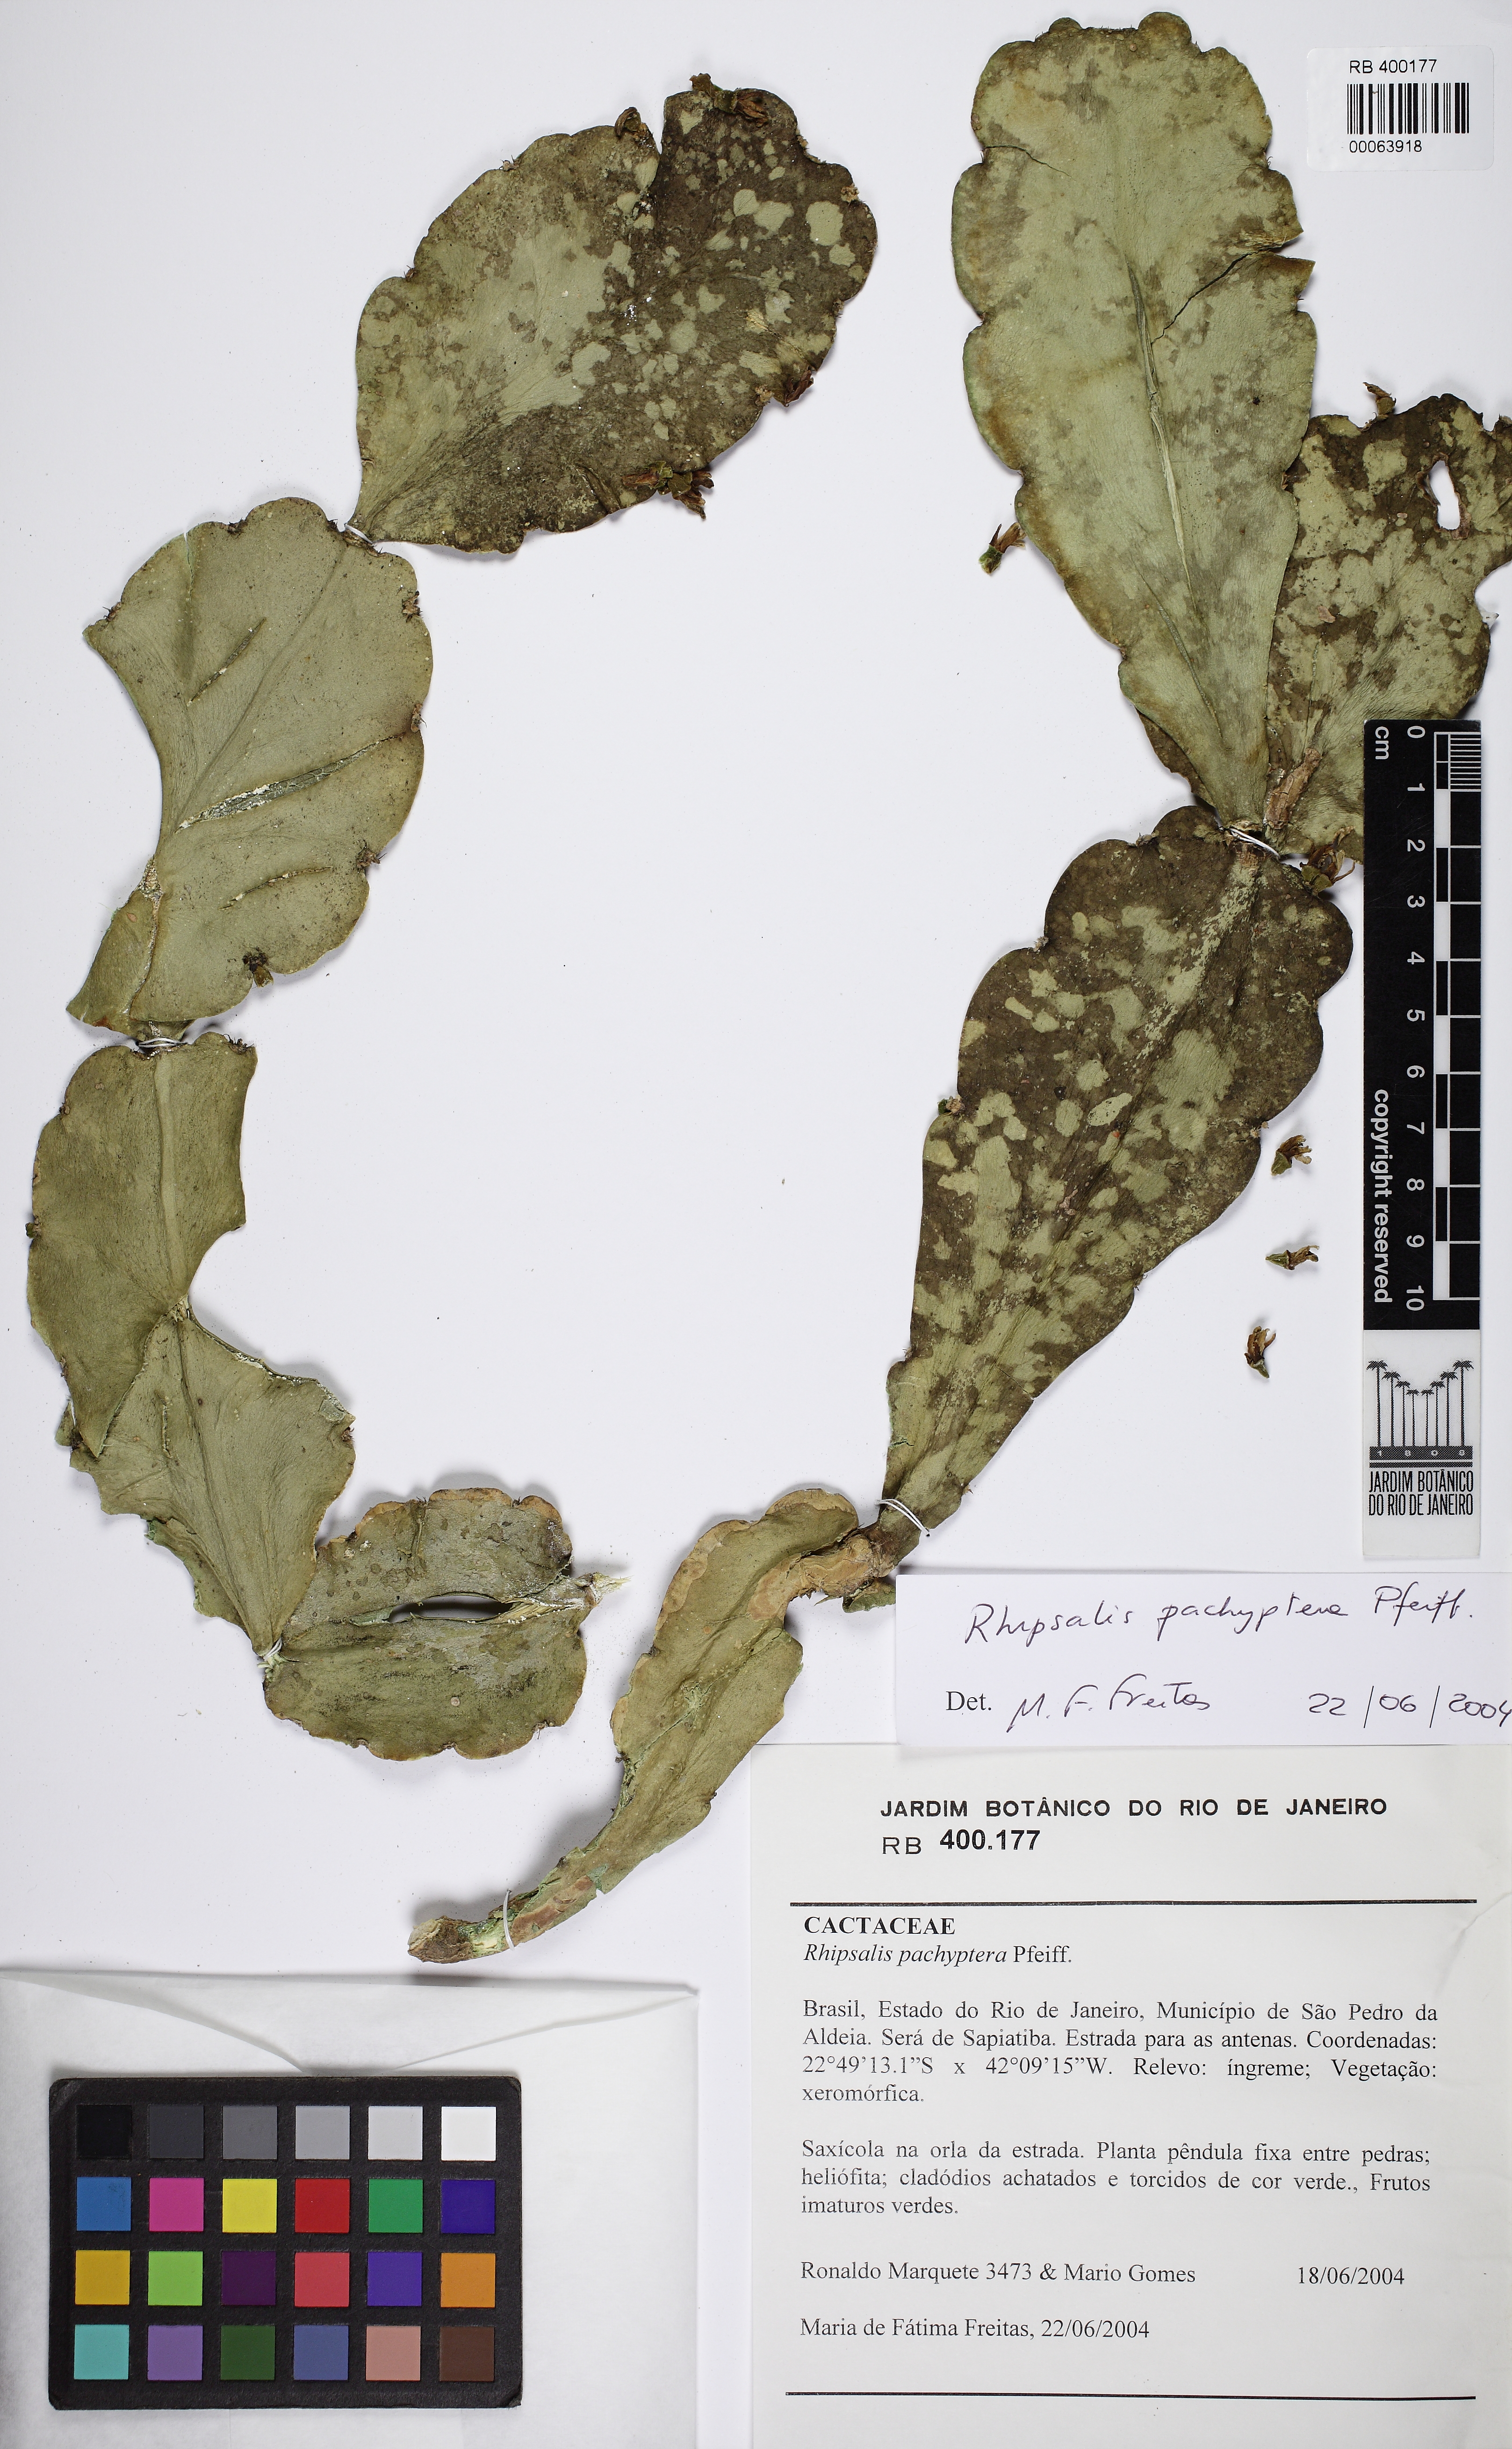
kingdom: Plantae
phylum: Tracheophyta
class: Magnoliopsida
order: Caryophyllales
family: Cactaceae
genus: Rhipsalis
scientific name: Rhipsalis pachyptera
